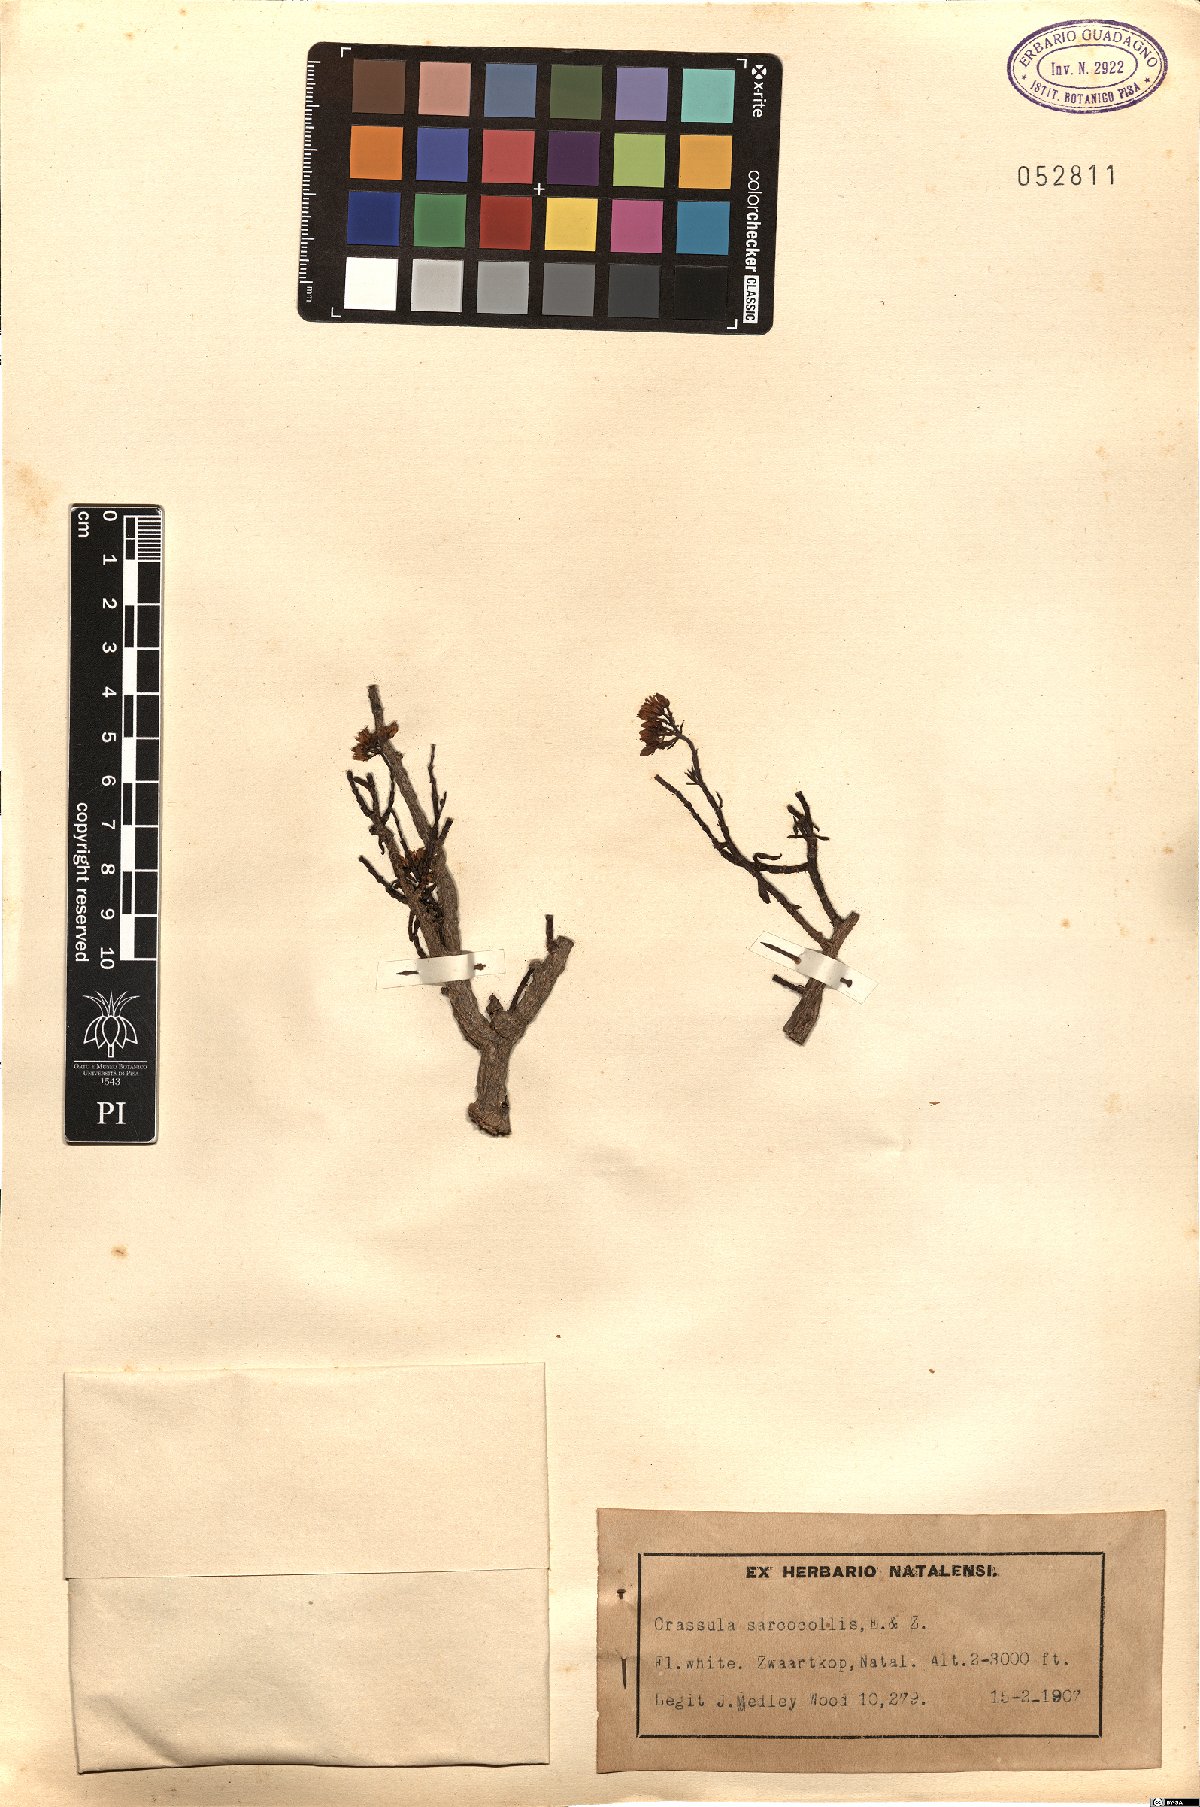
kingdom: Plantae
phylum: Tracheophyta
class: Magnoliopsida
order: Saxifragales
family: Crassulaceae
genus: Crassula
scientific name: Crassula sarcocaulis
